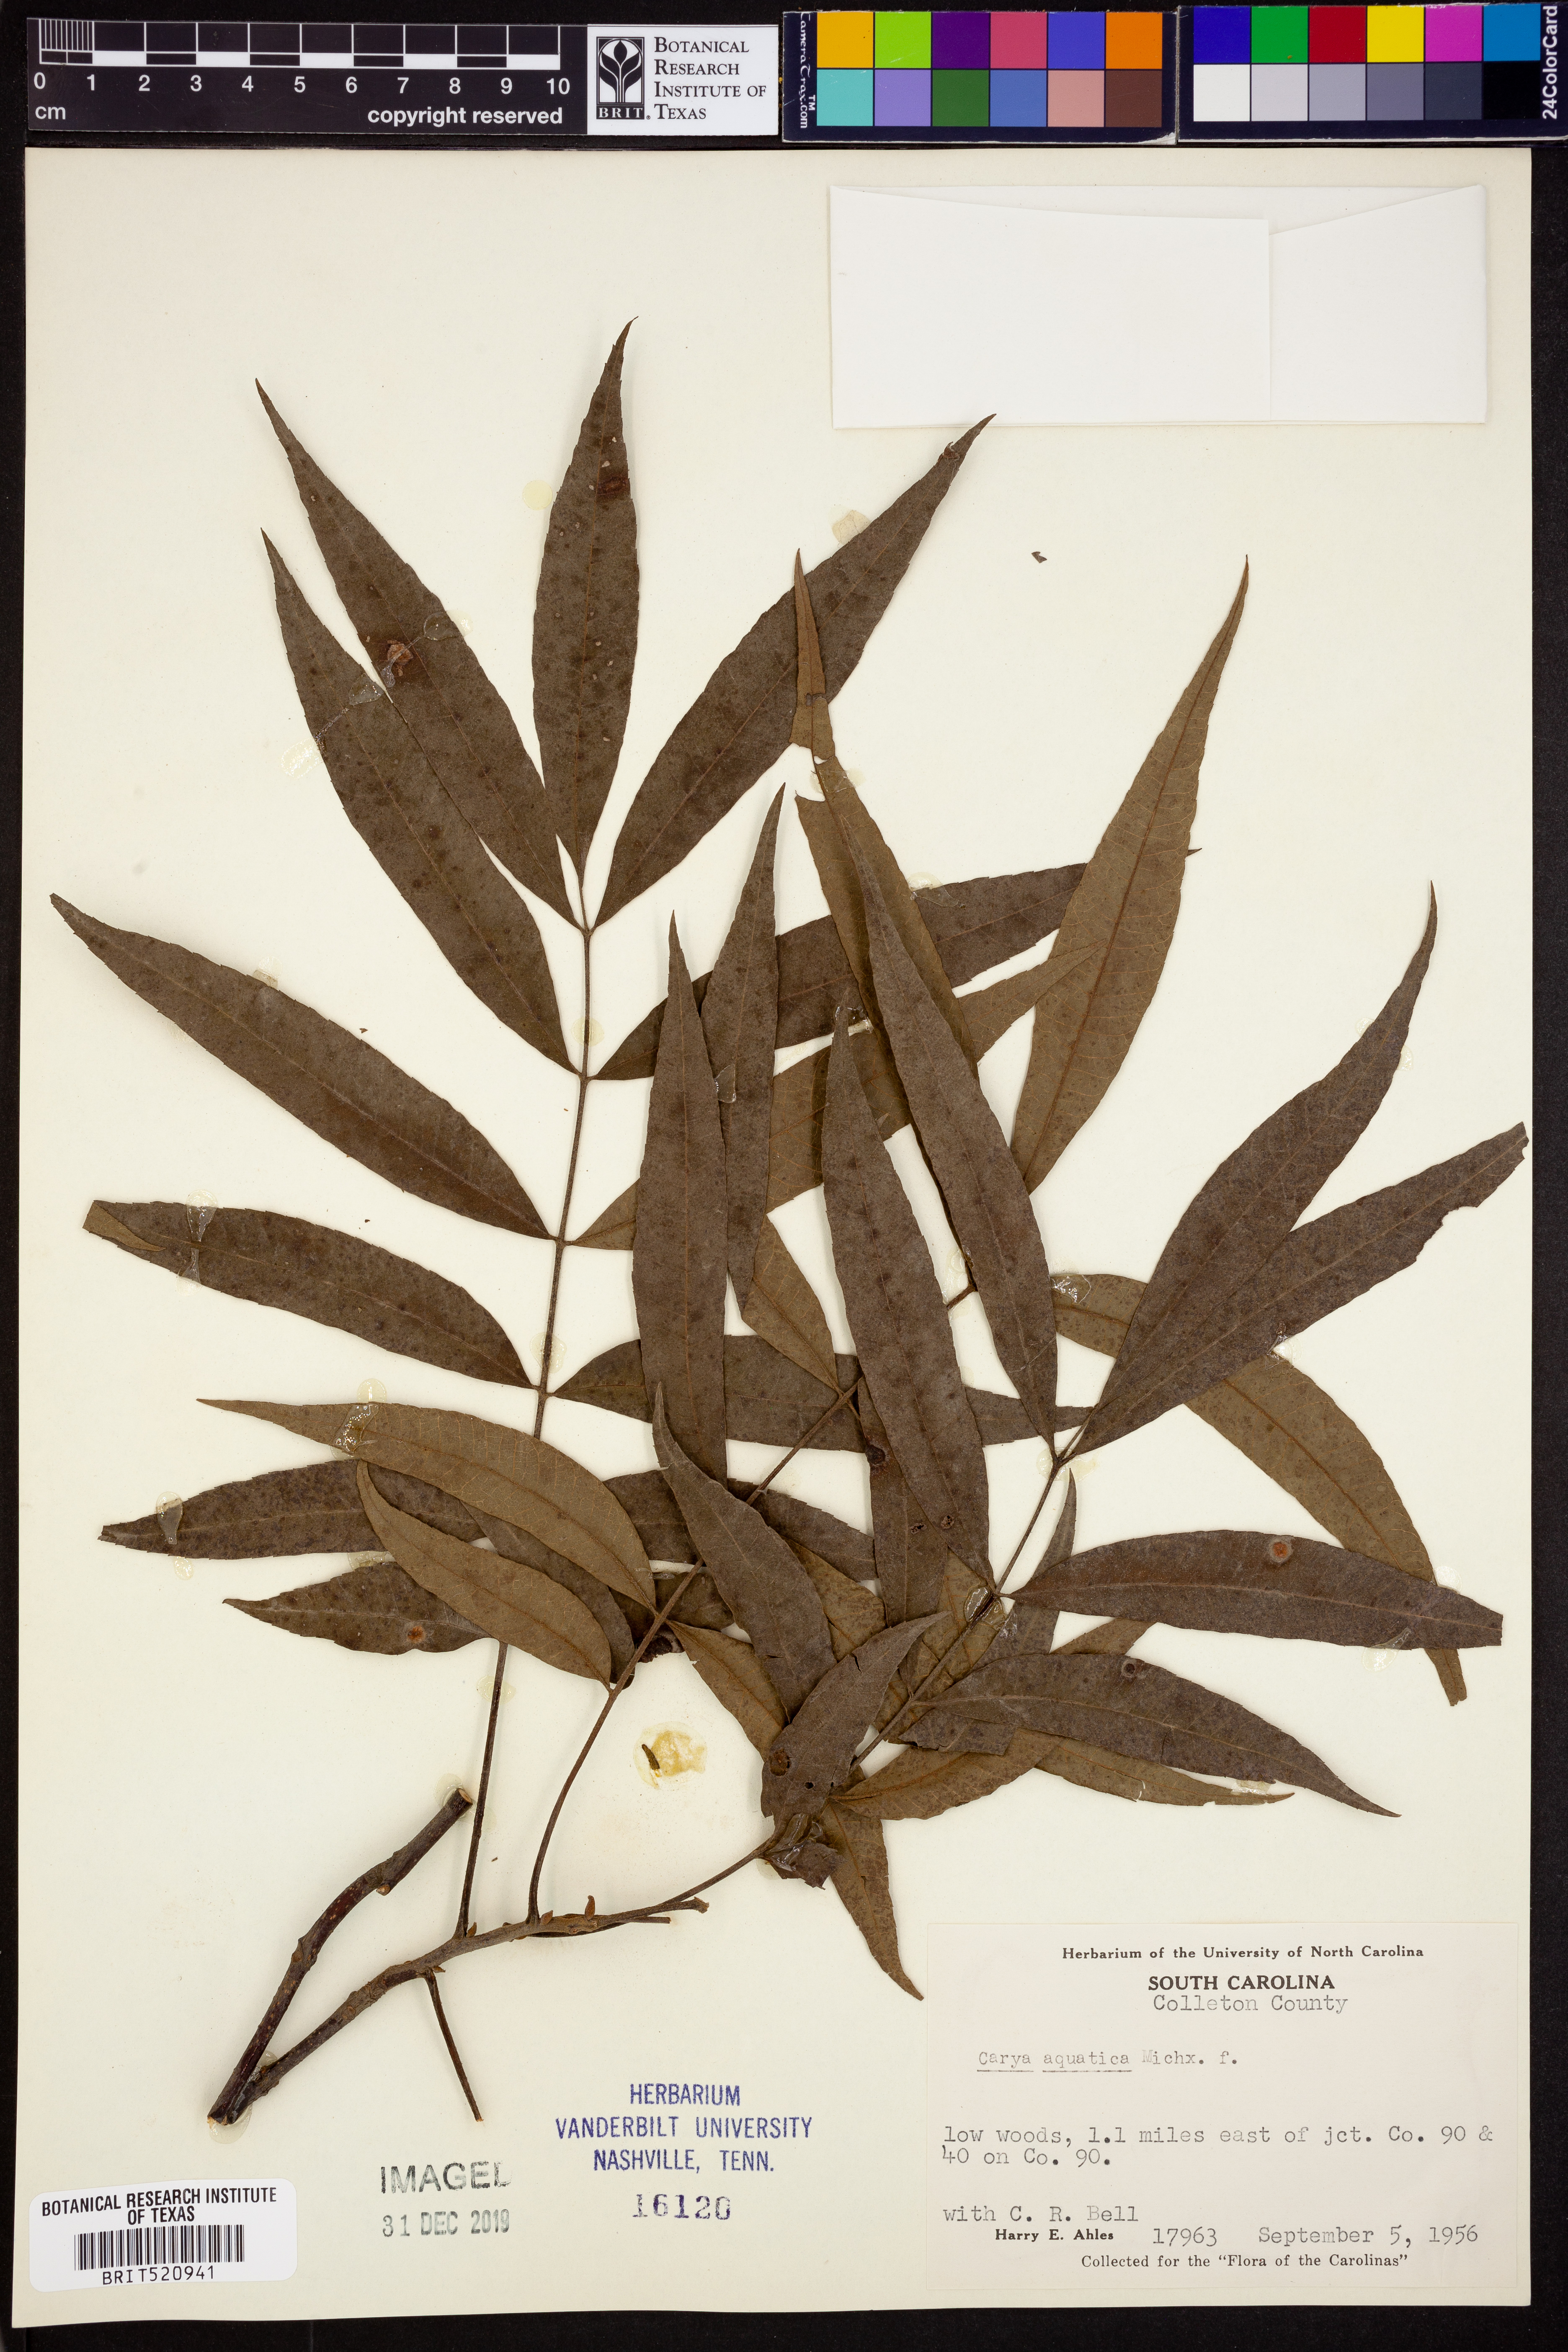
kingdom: Plantae
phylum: Tracheophyta
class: Magnoliopsida
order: Fagales
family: Juglandaceae
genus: Carya
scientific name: Carya aquatica
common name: Water hickory
